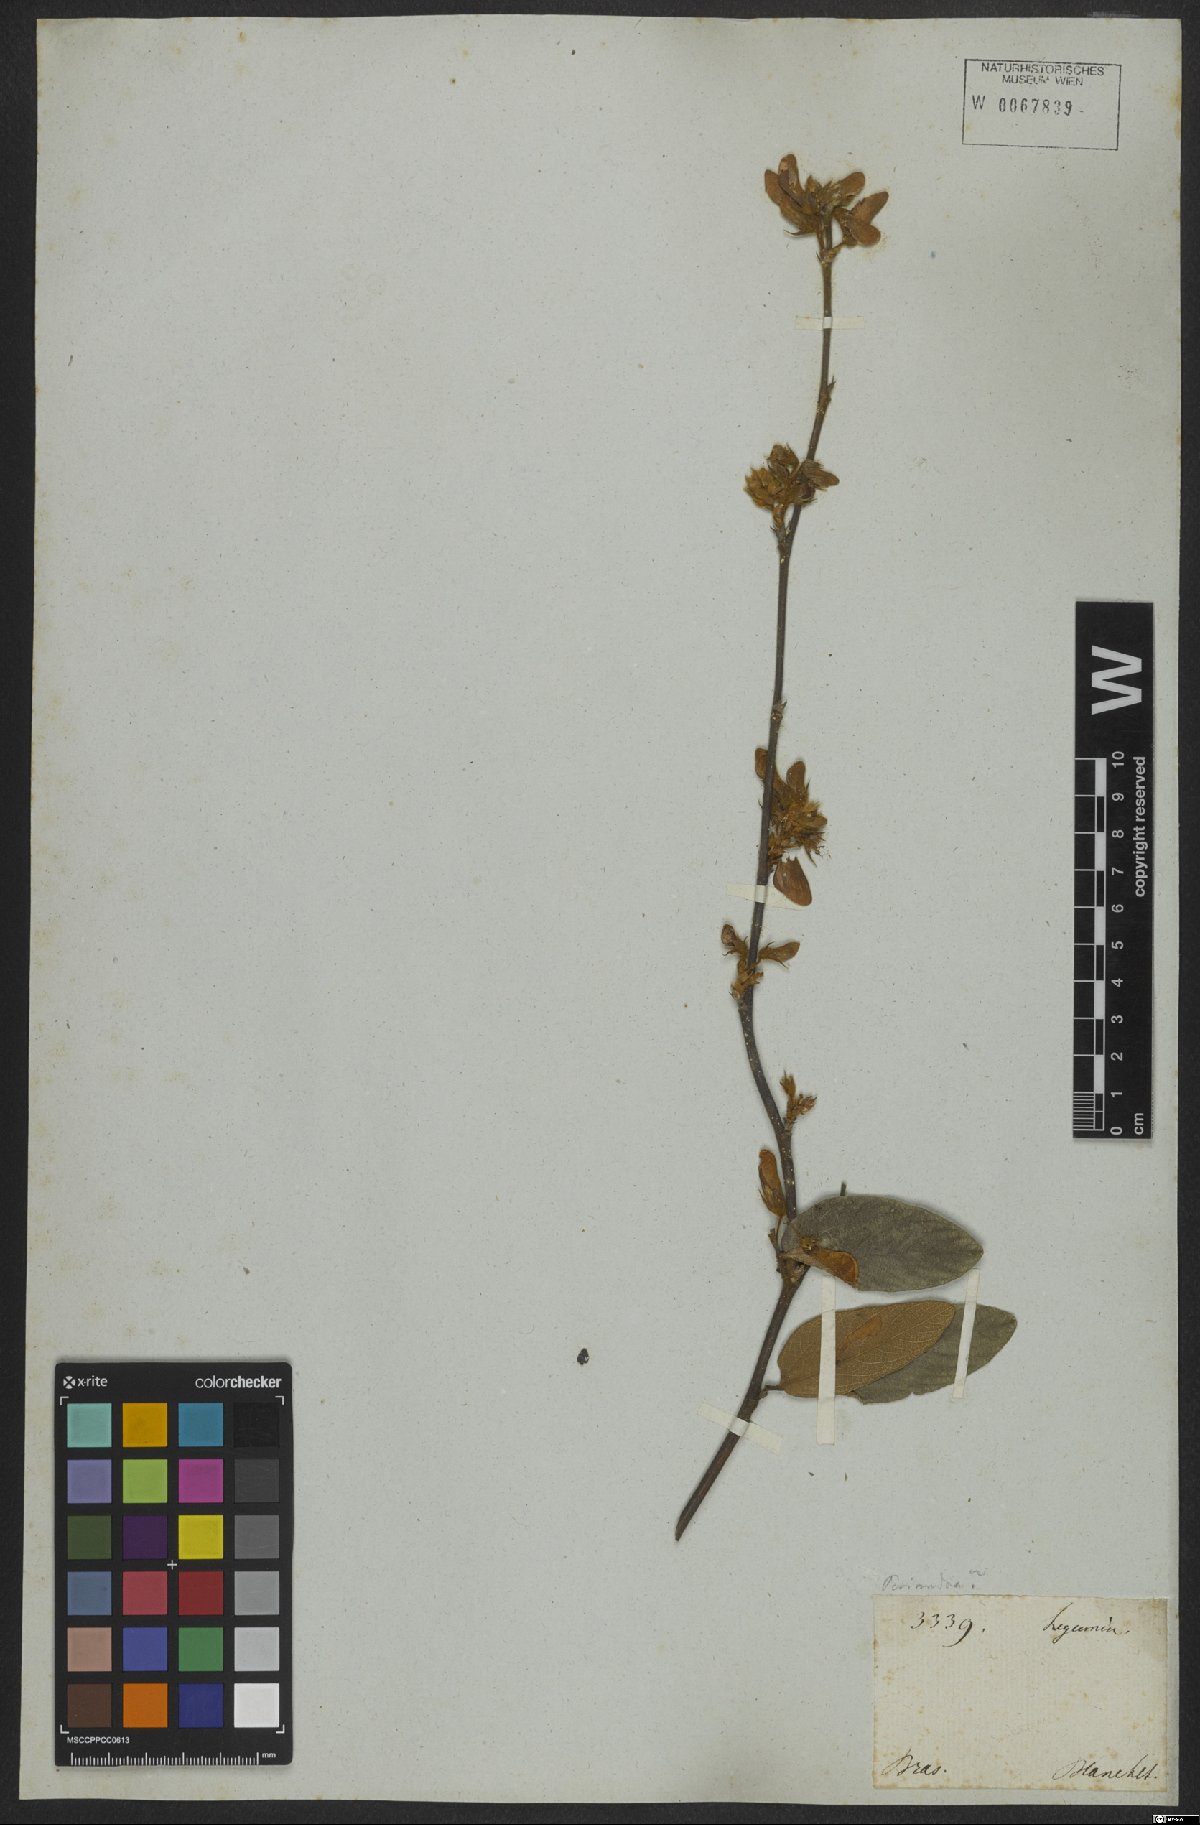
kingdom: Plantae
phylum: Tracheophyta
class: Magnoliopsida
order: Fabales
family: Fabaceae
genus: Periandra
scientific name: Periandra
